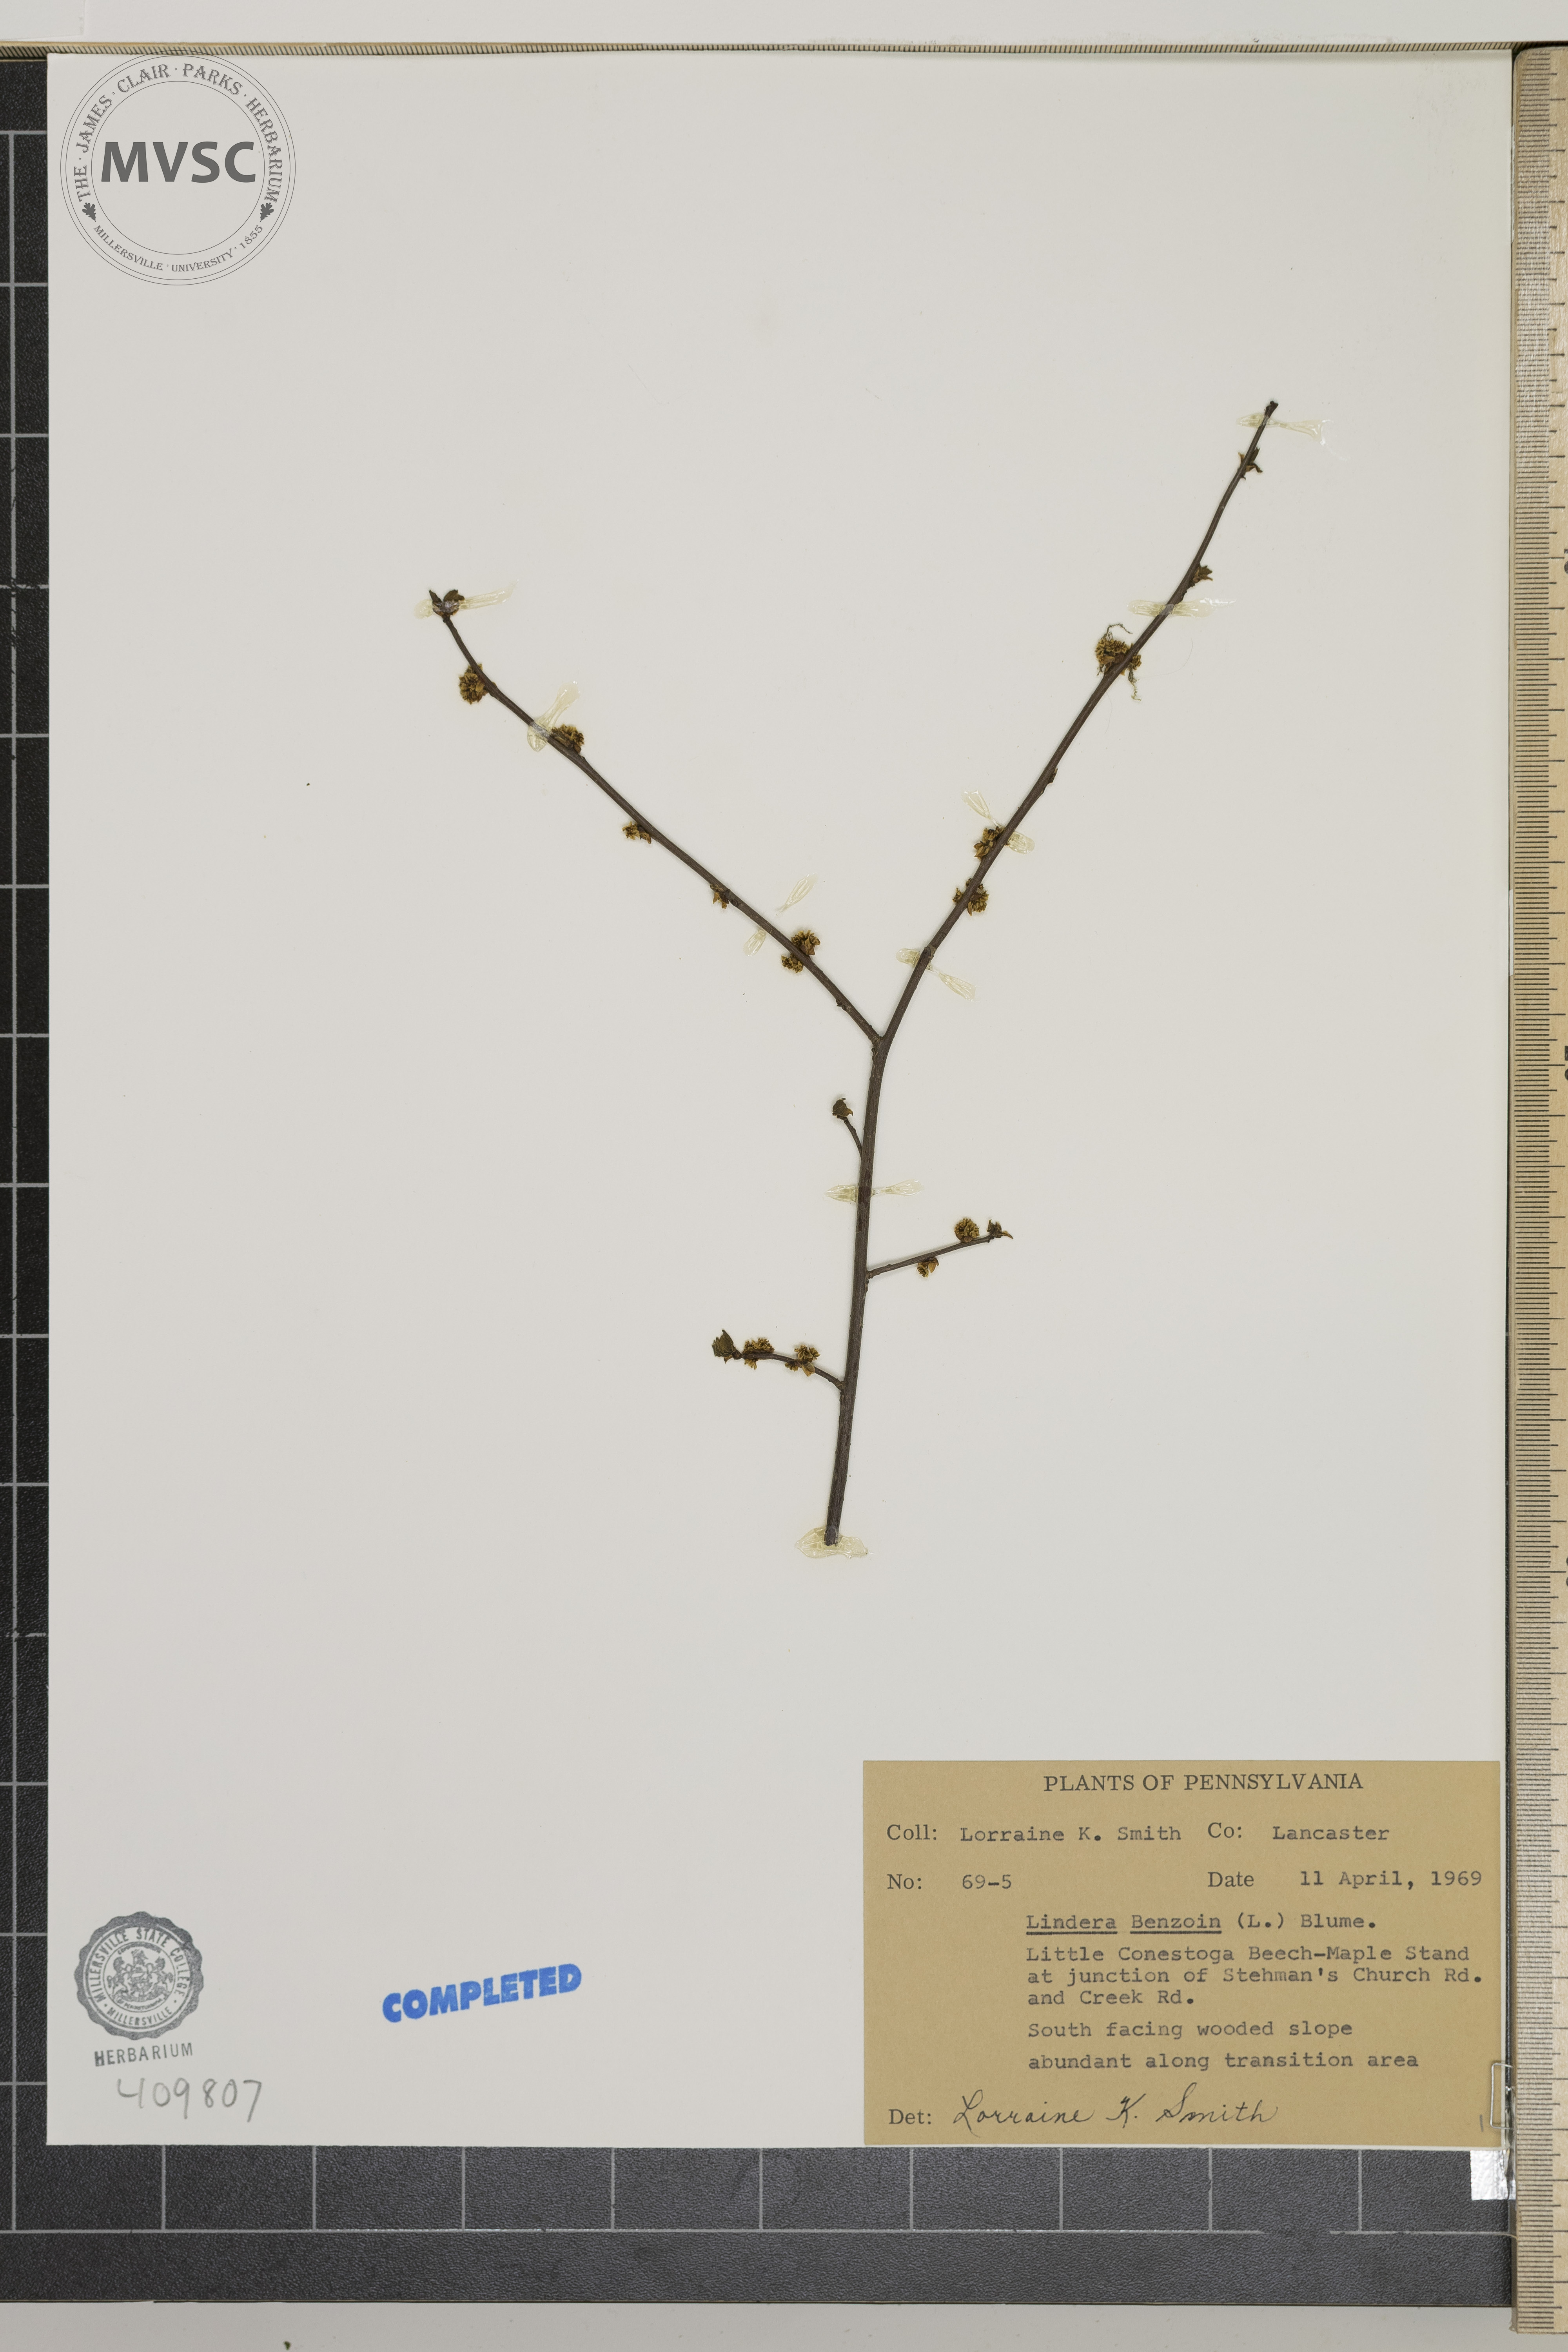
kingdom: Plantae
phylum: Tracheophyta
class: Magnoliopsida
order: Laurales
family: Lauraceae
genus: Lindera
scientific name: Lindera benzoin
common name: Spicebush
